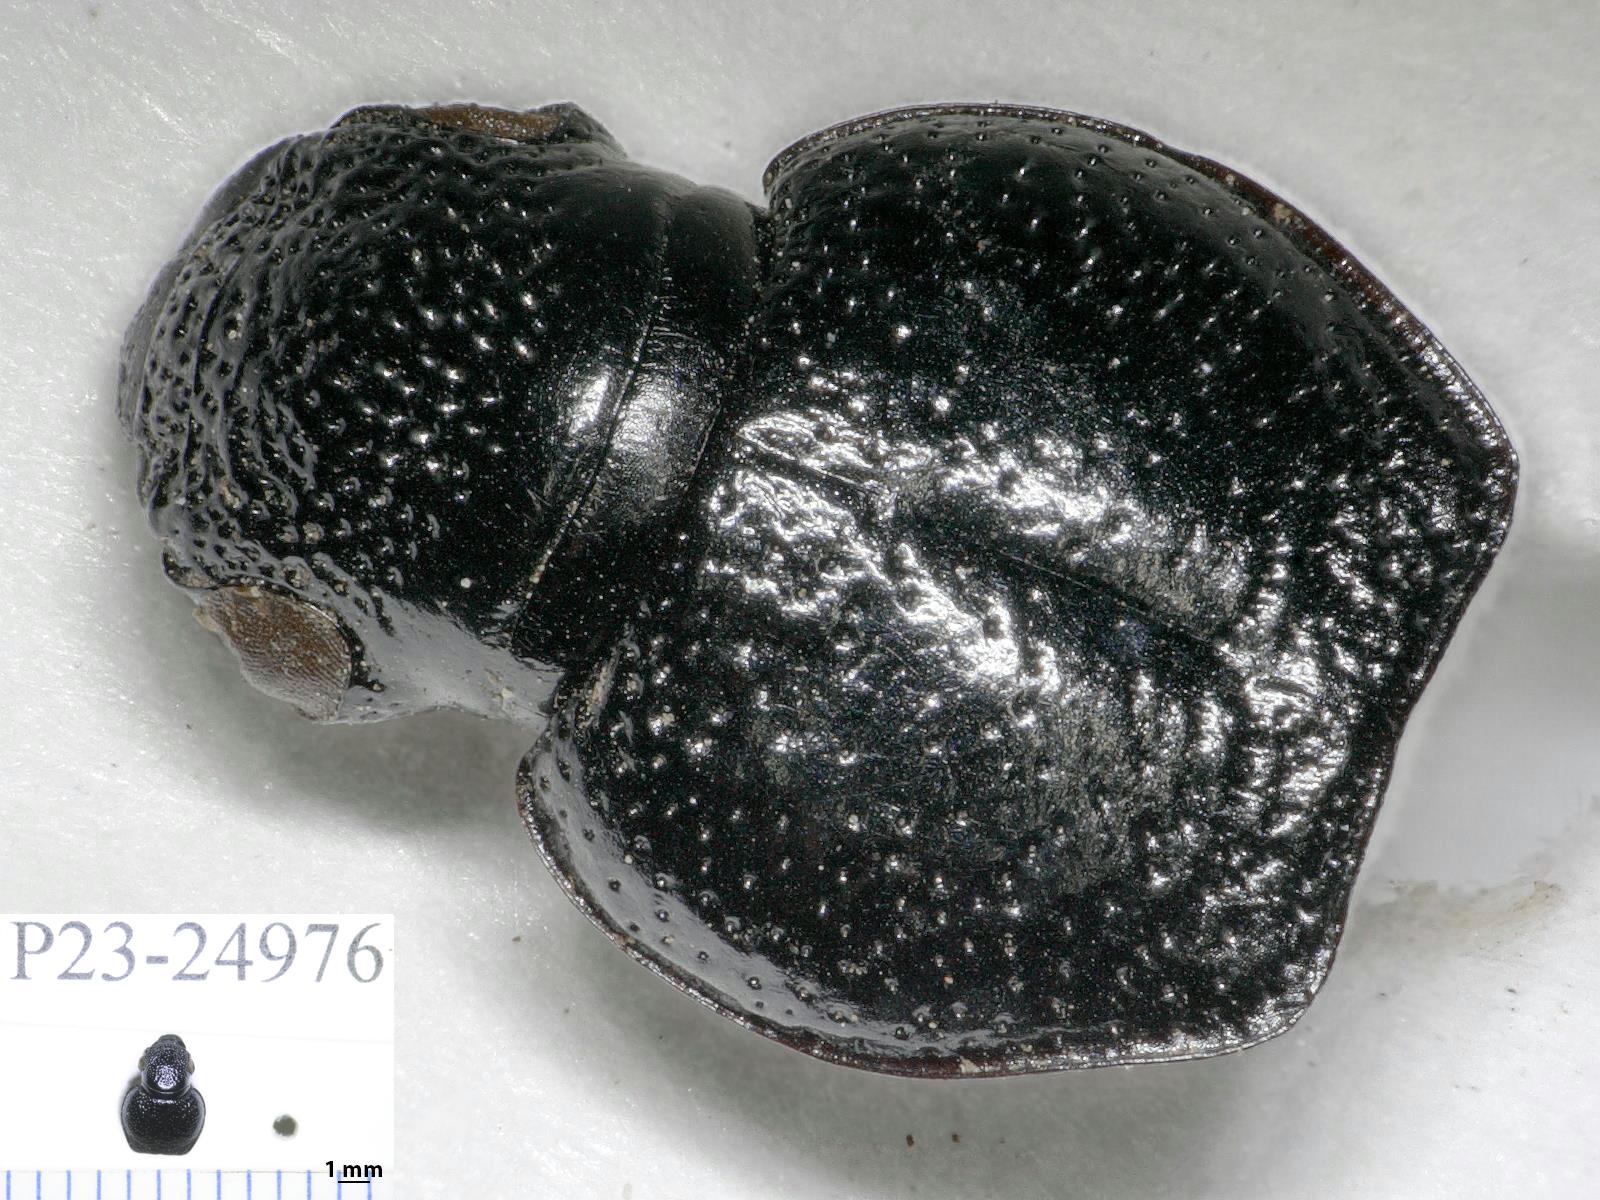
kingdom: Animalia
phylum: Arthropoda
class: Insecta
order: Coleoptera
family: Carabidae
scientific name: Carabidae
